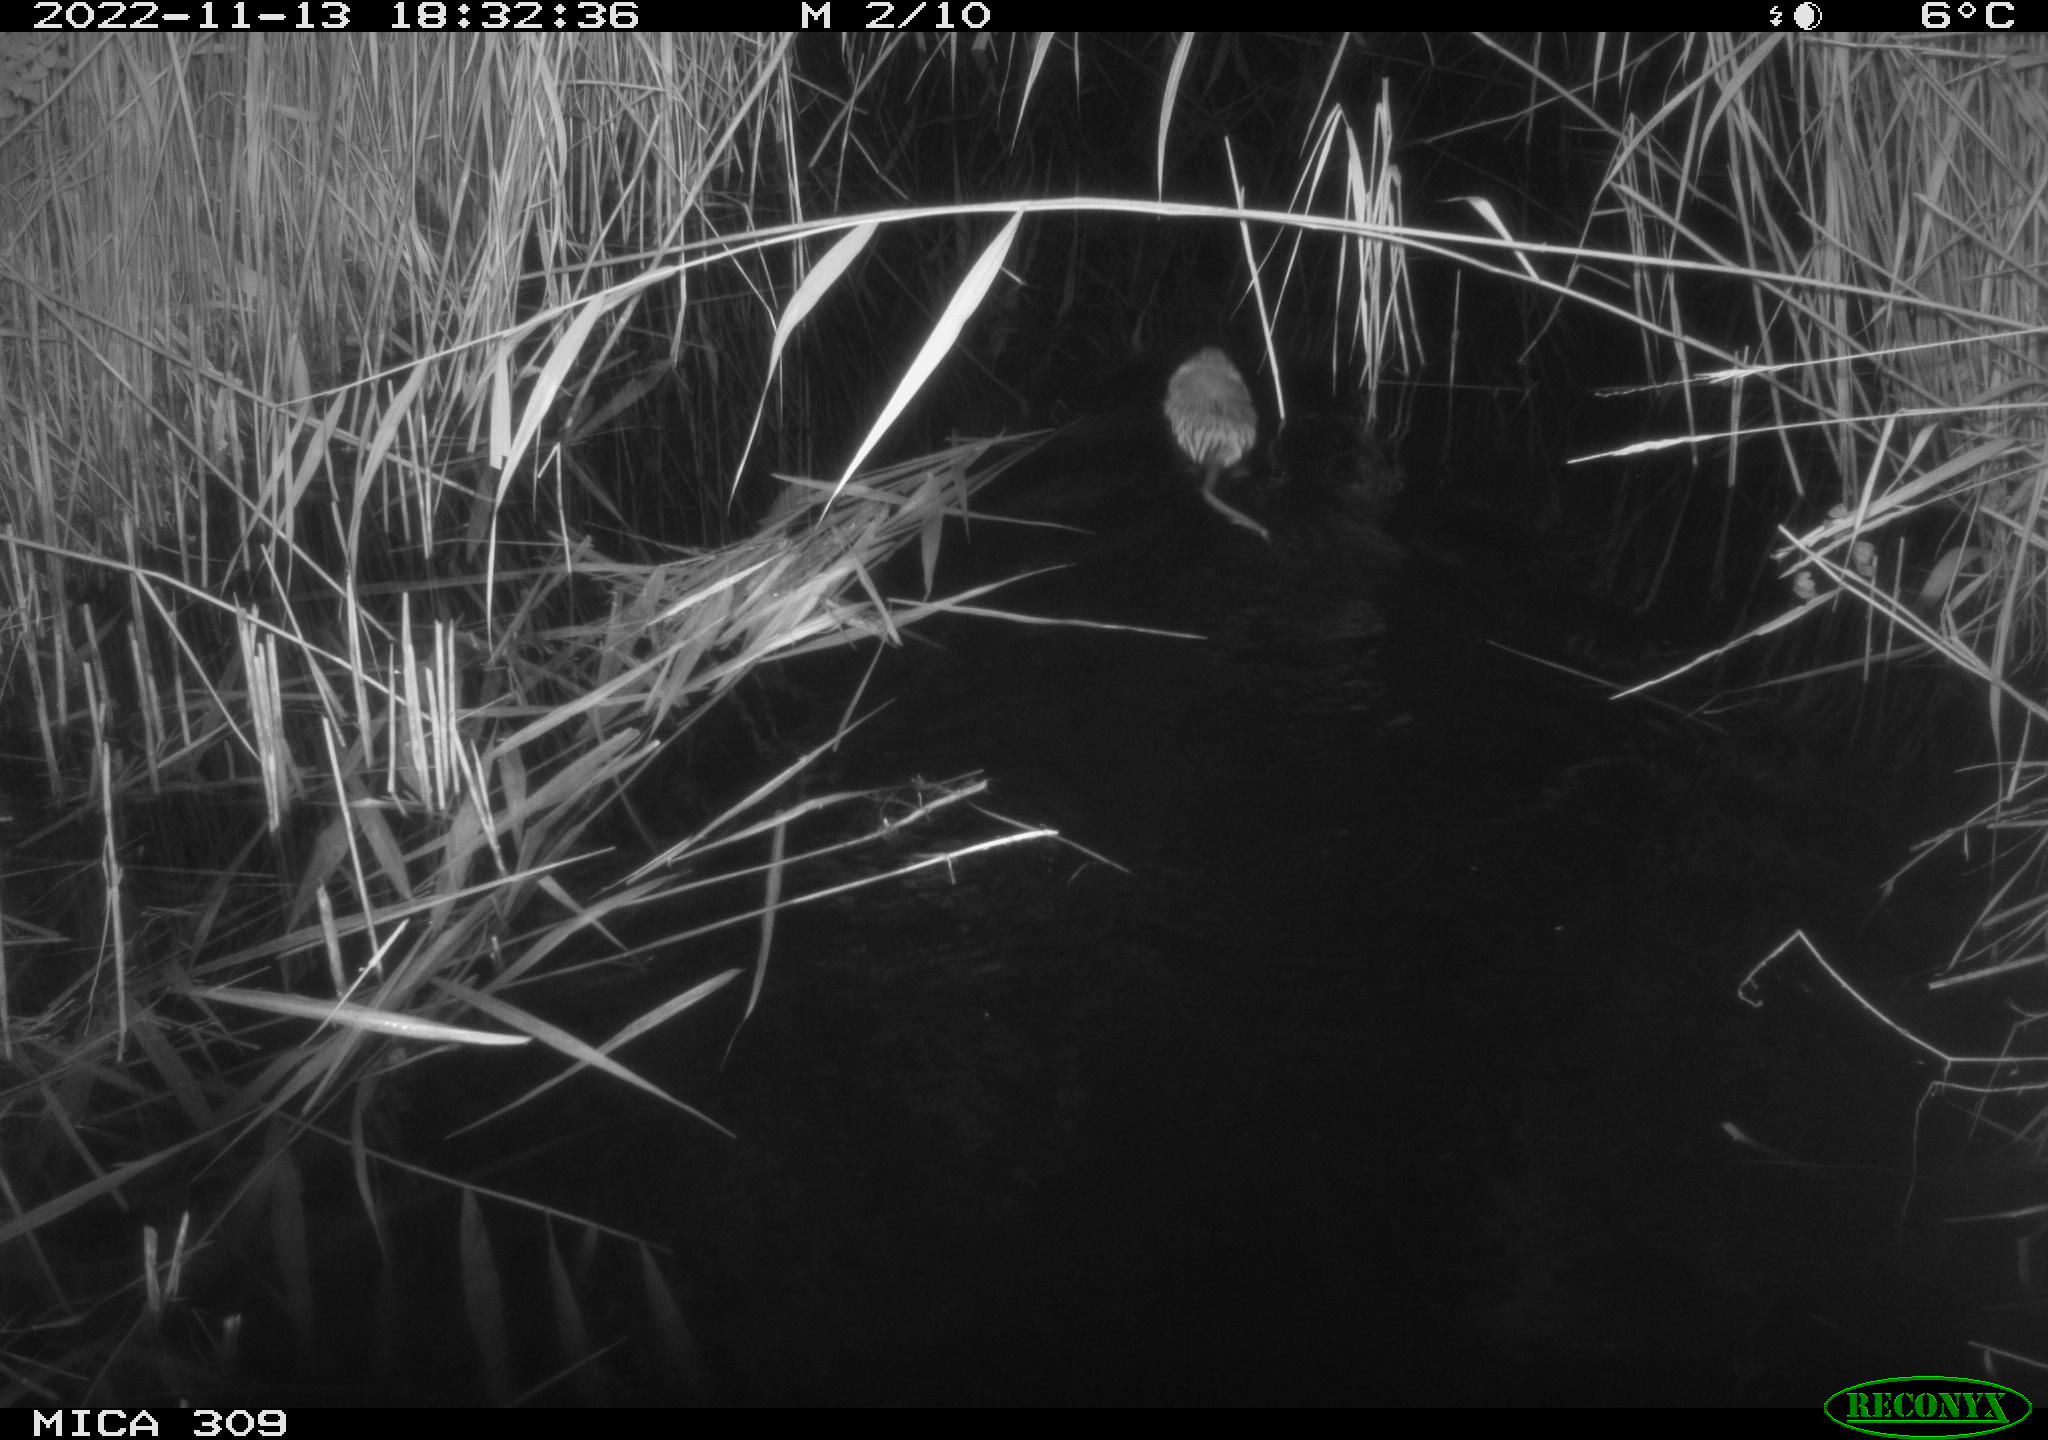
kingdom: Animalia
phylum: Chordata
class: Mammalia
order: Rodentia
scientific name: Rodentia
